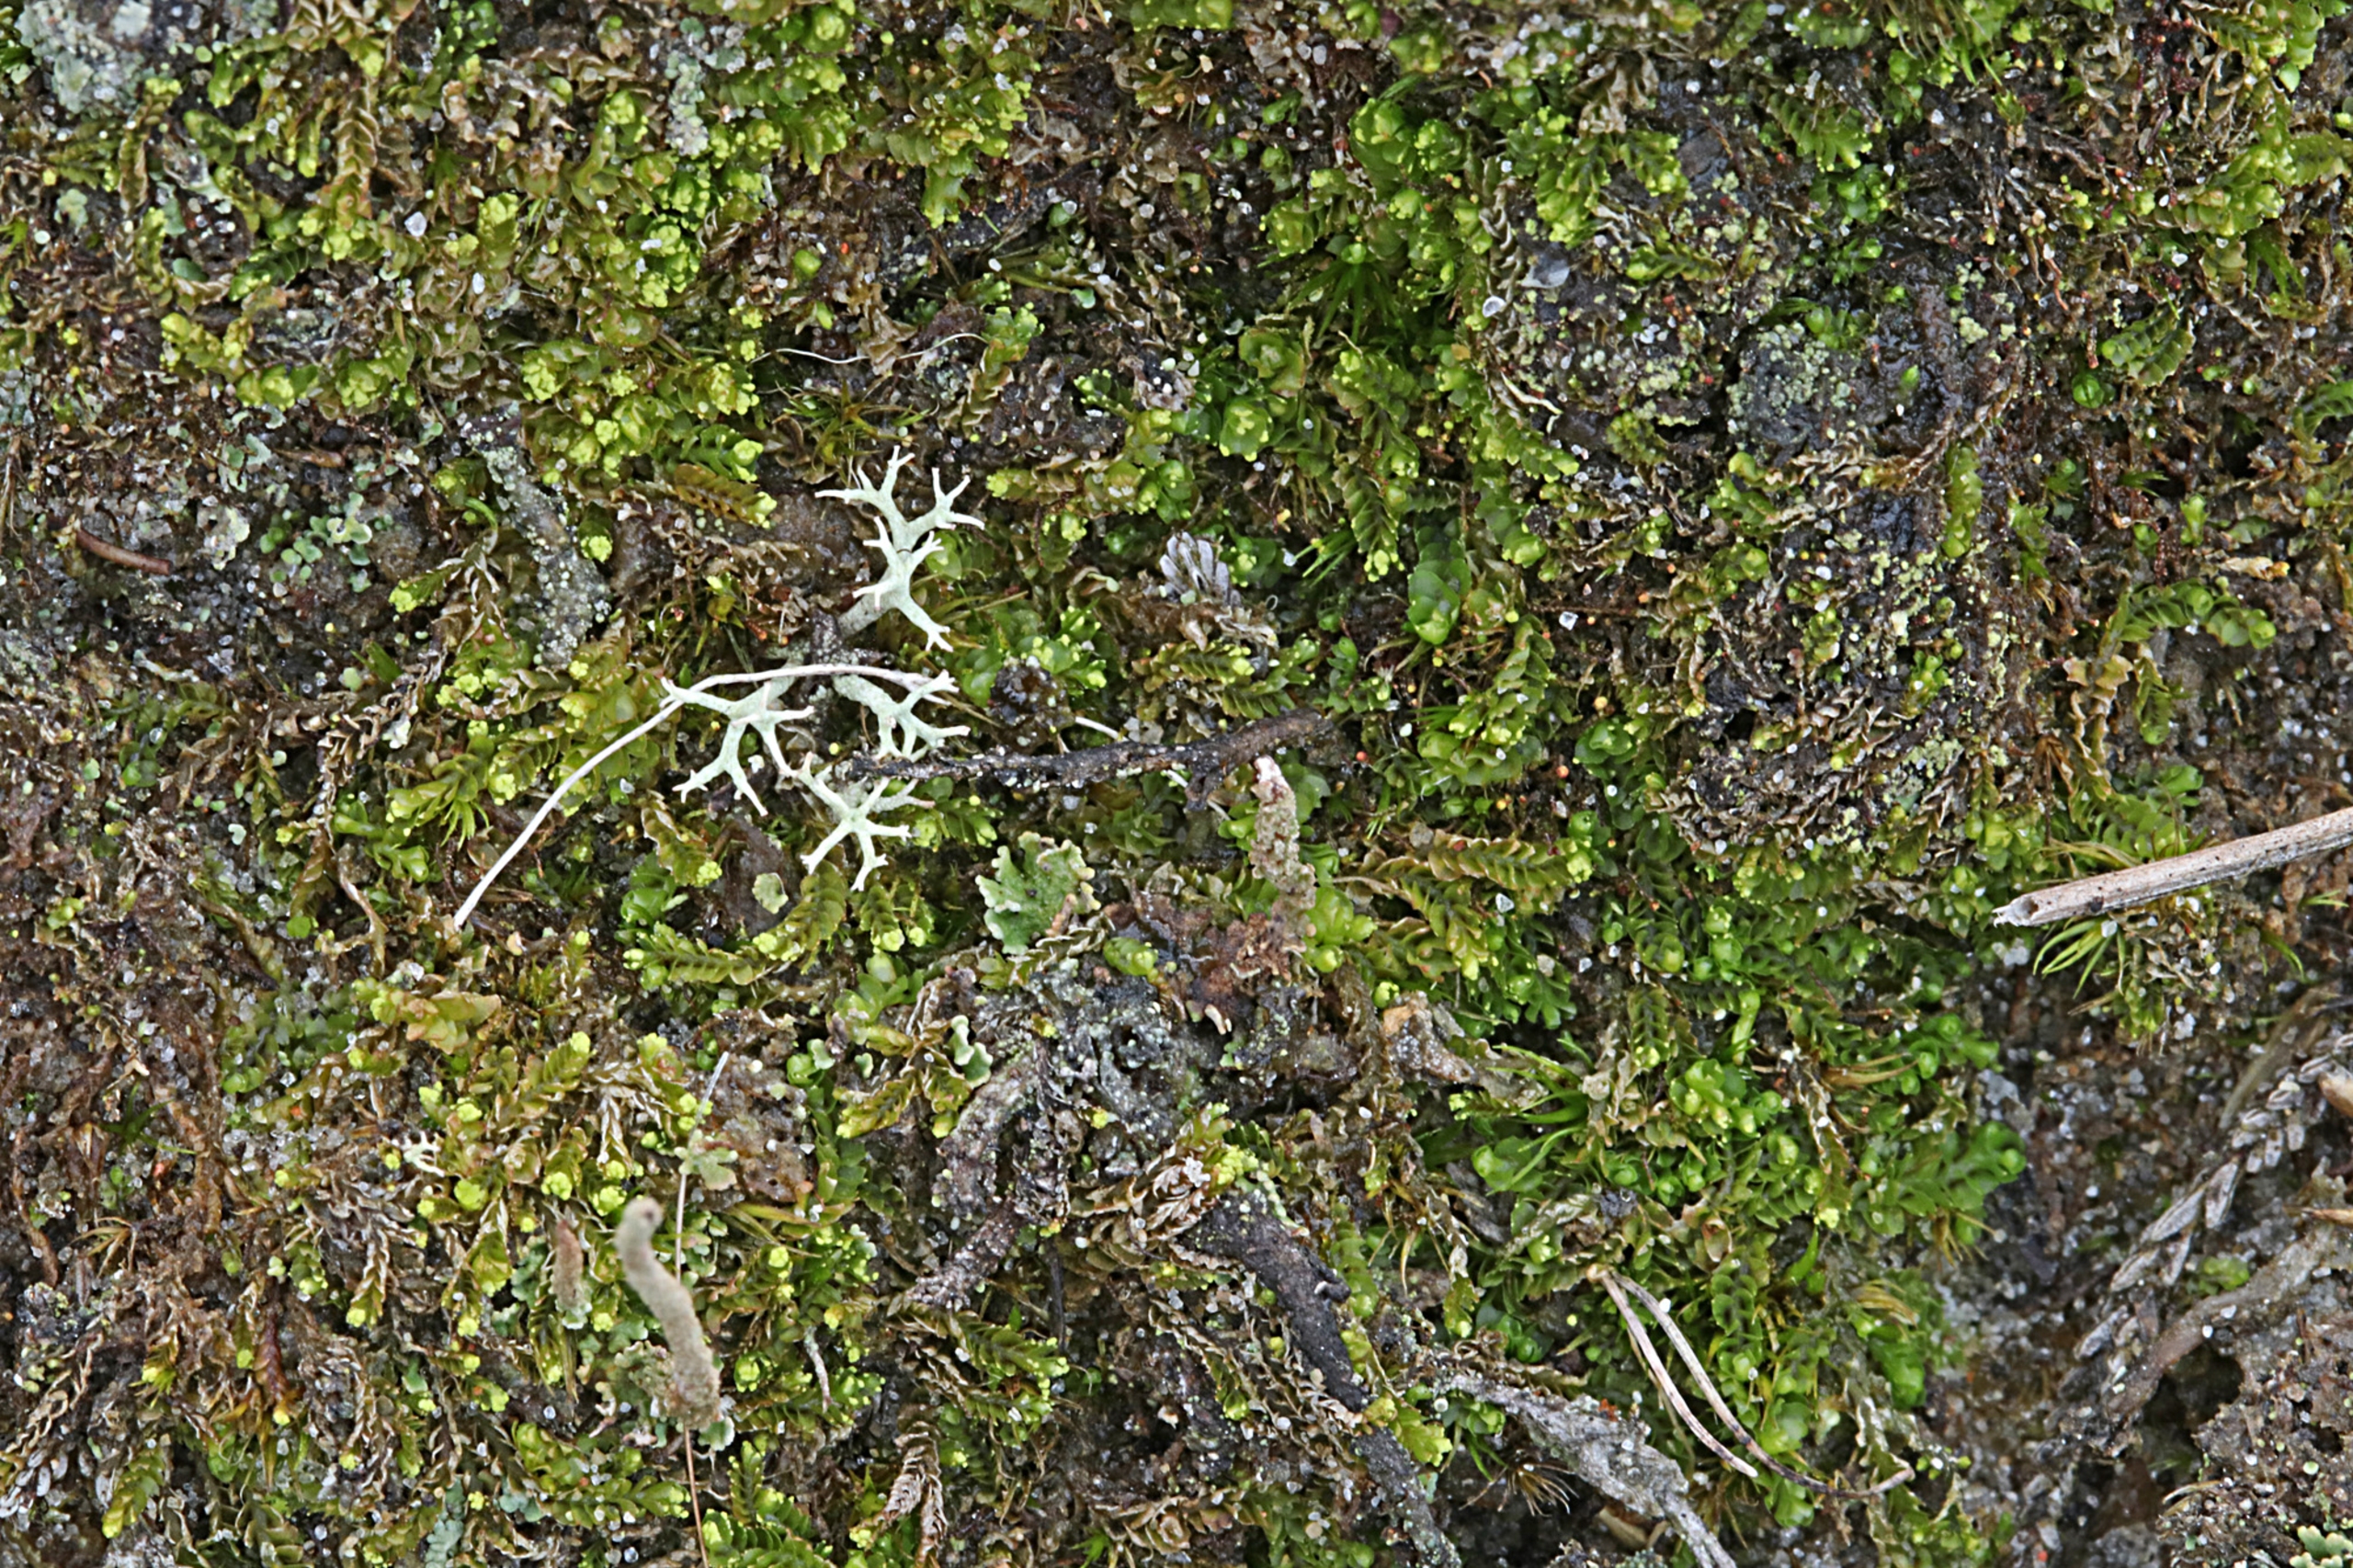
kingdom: Plantae
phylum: Marchantiophyta
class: Jungermanniopsida
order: Jungermanniales
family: Lophoziaceae
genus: Lophozia
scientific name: Lophozia ventricosa
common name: Grønkornet foldbæger
